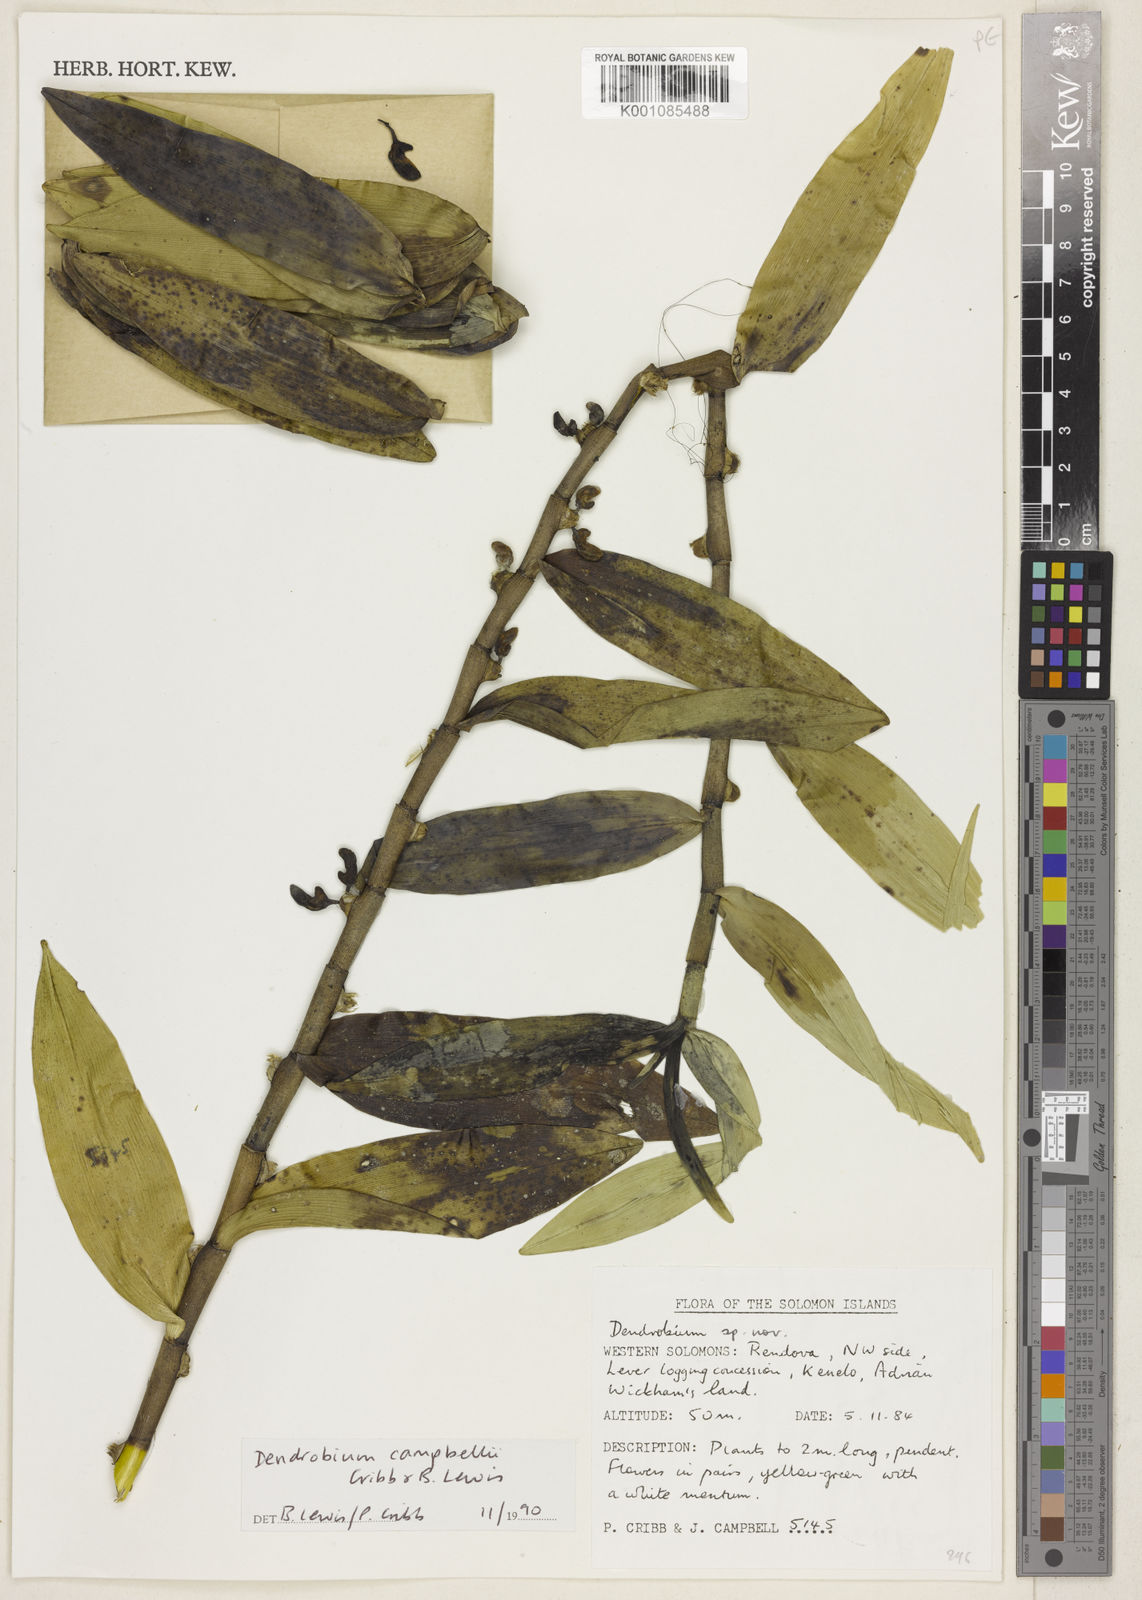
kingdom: Plantae
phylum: Tracheophyta
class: Liliopsida
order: Asparagales
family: Orchidaceae
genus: Dendrobium
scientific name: Dendrobium campbellii
